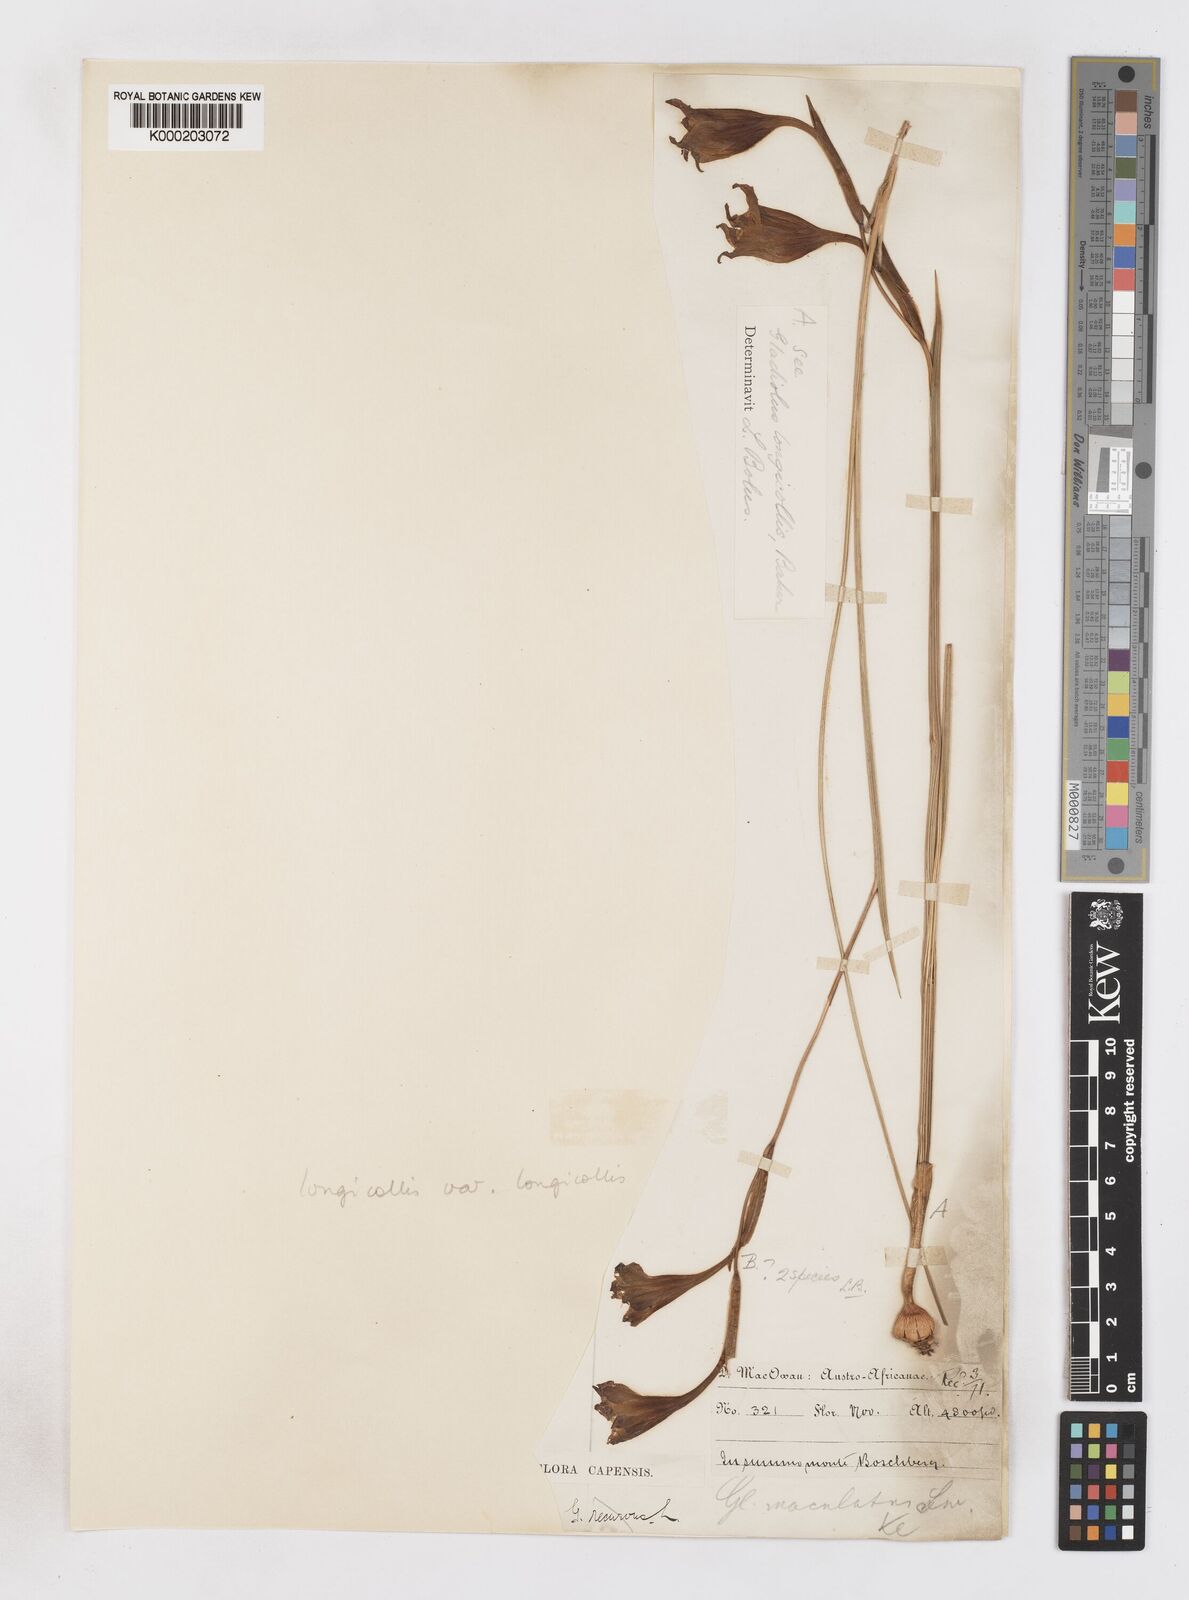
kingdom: Plantae
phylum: Tracheophyta
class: Liliopsida
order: Asparagales
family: Iridaceae
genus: Gladiolus
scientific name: Gladiolus longicollis
